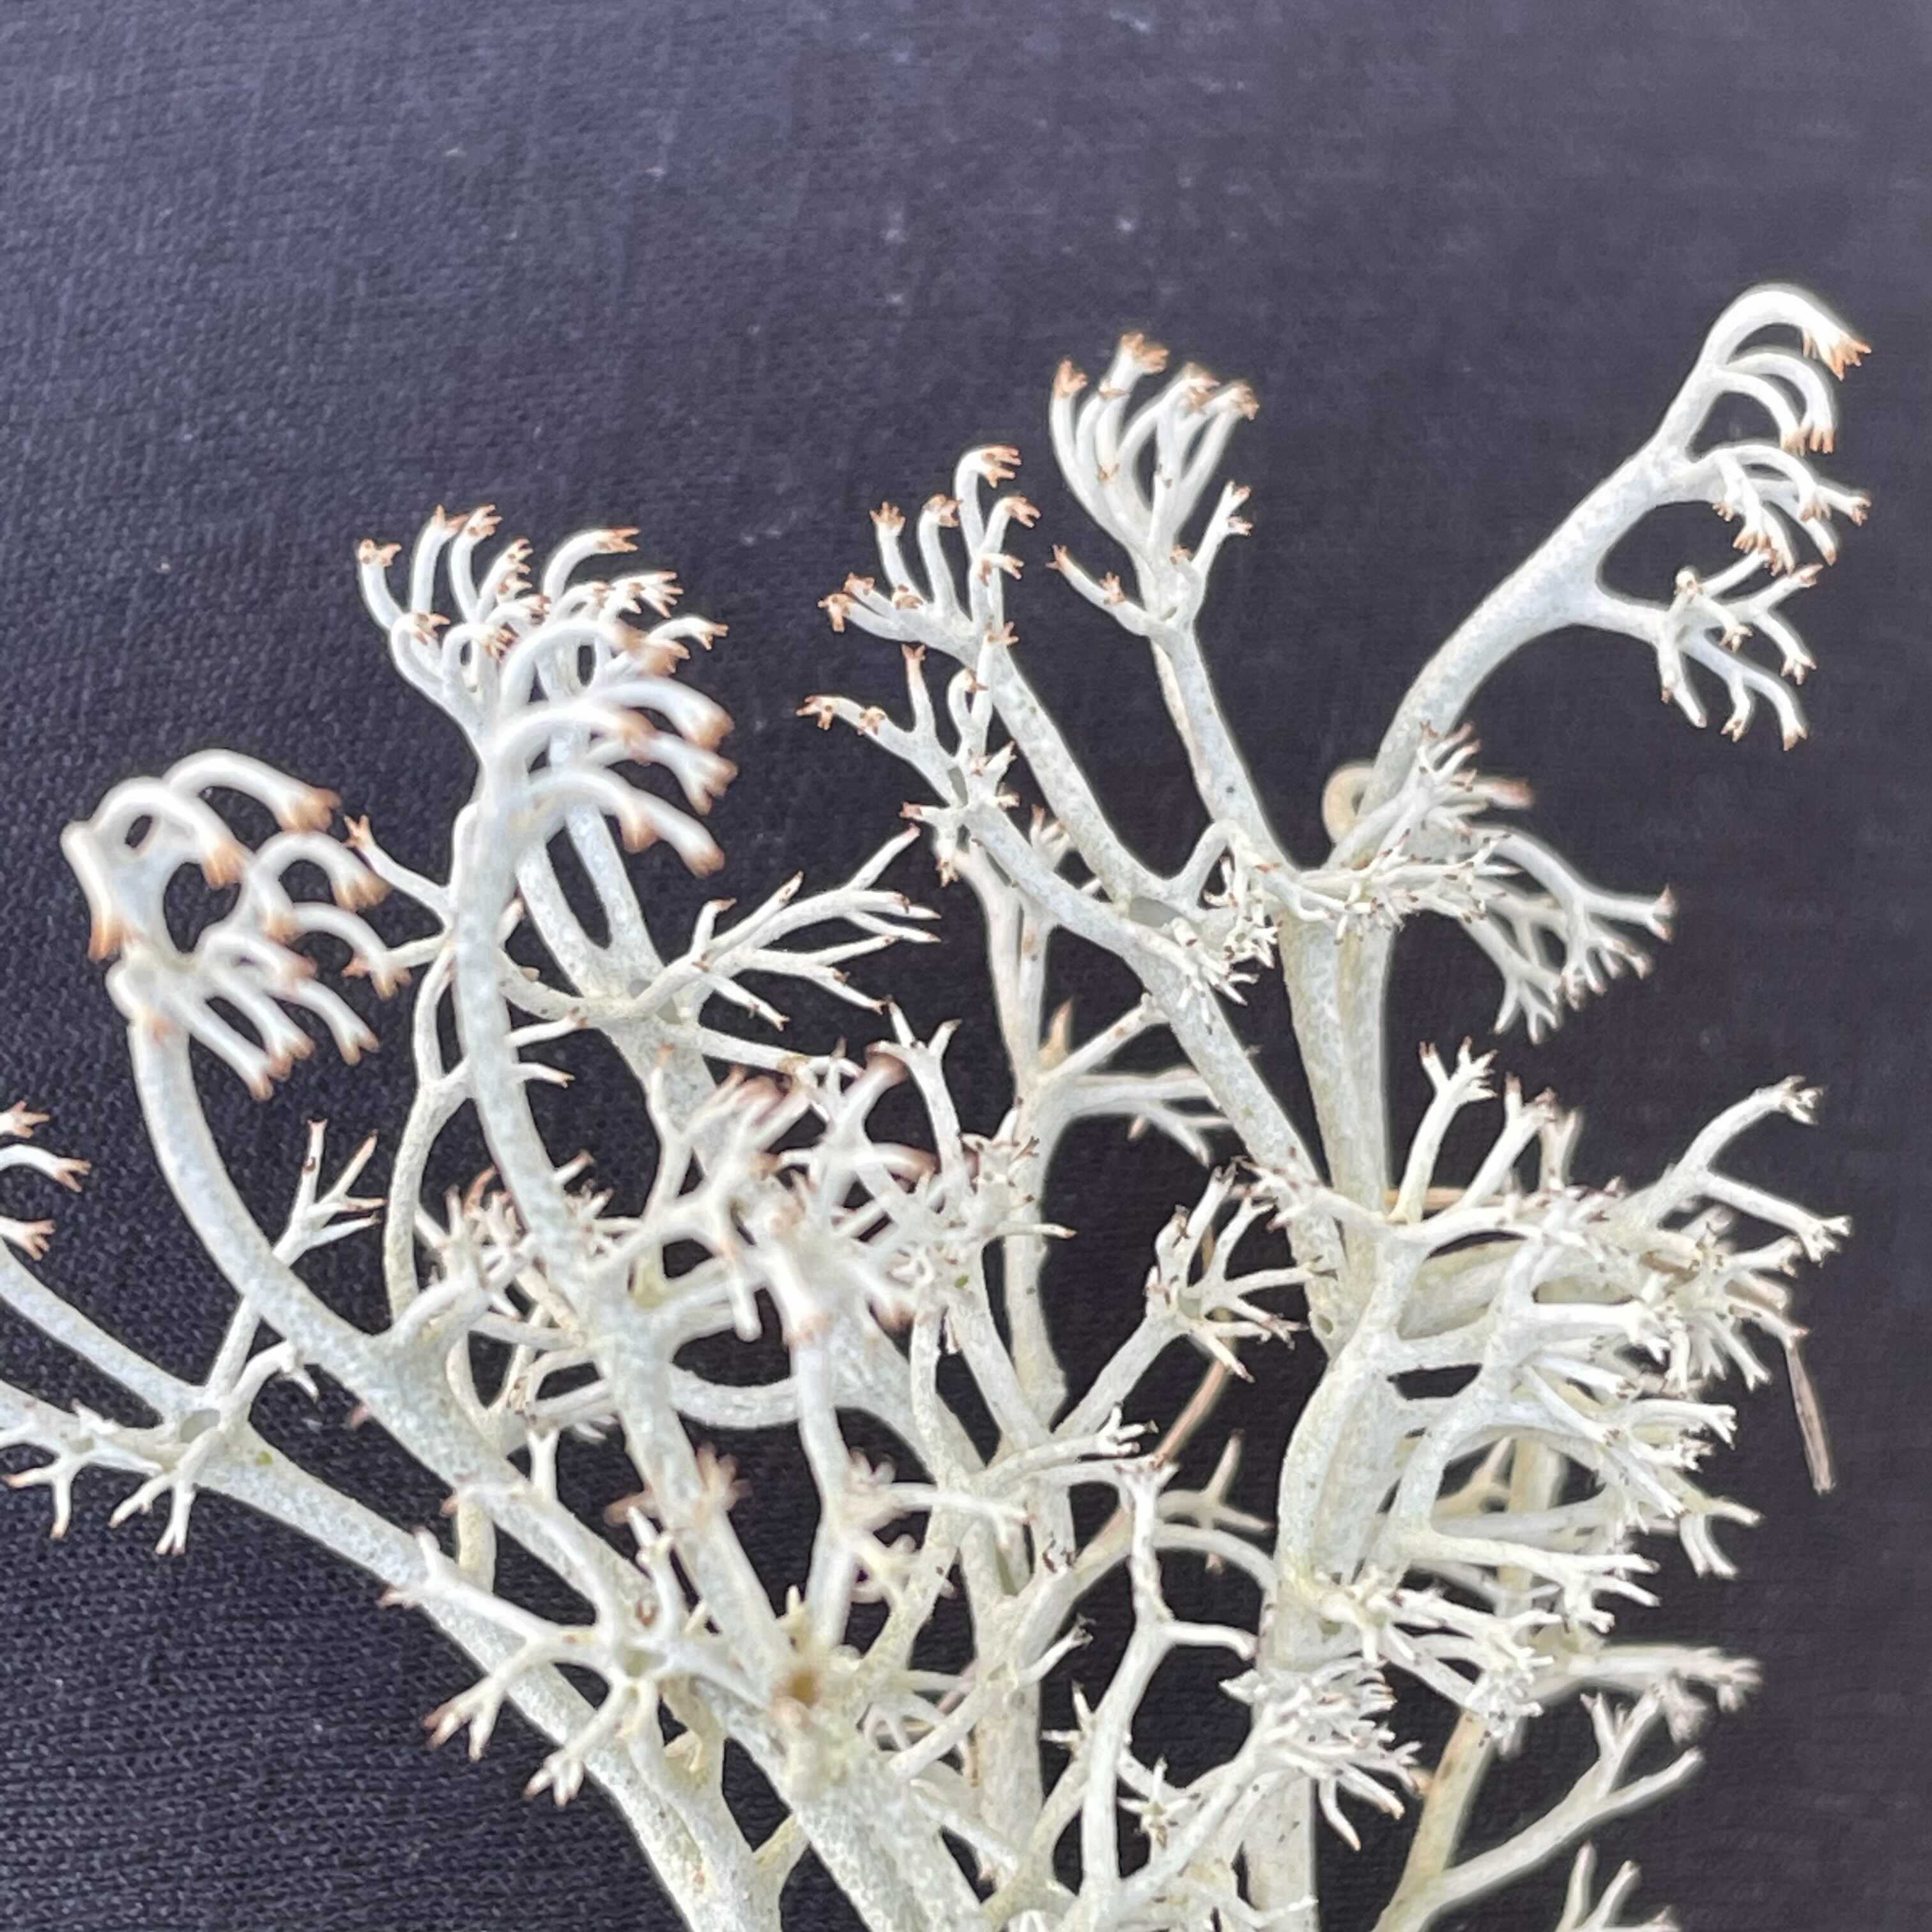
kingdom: Fungi
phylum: Ascomycota
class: Lecanoromycetes
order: Lecanorales
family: Cladoniaceae
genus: Cladonia
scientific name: Cladonia ciliata
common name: spinkel rensdyrlav
